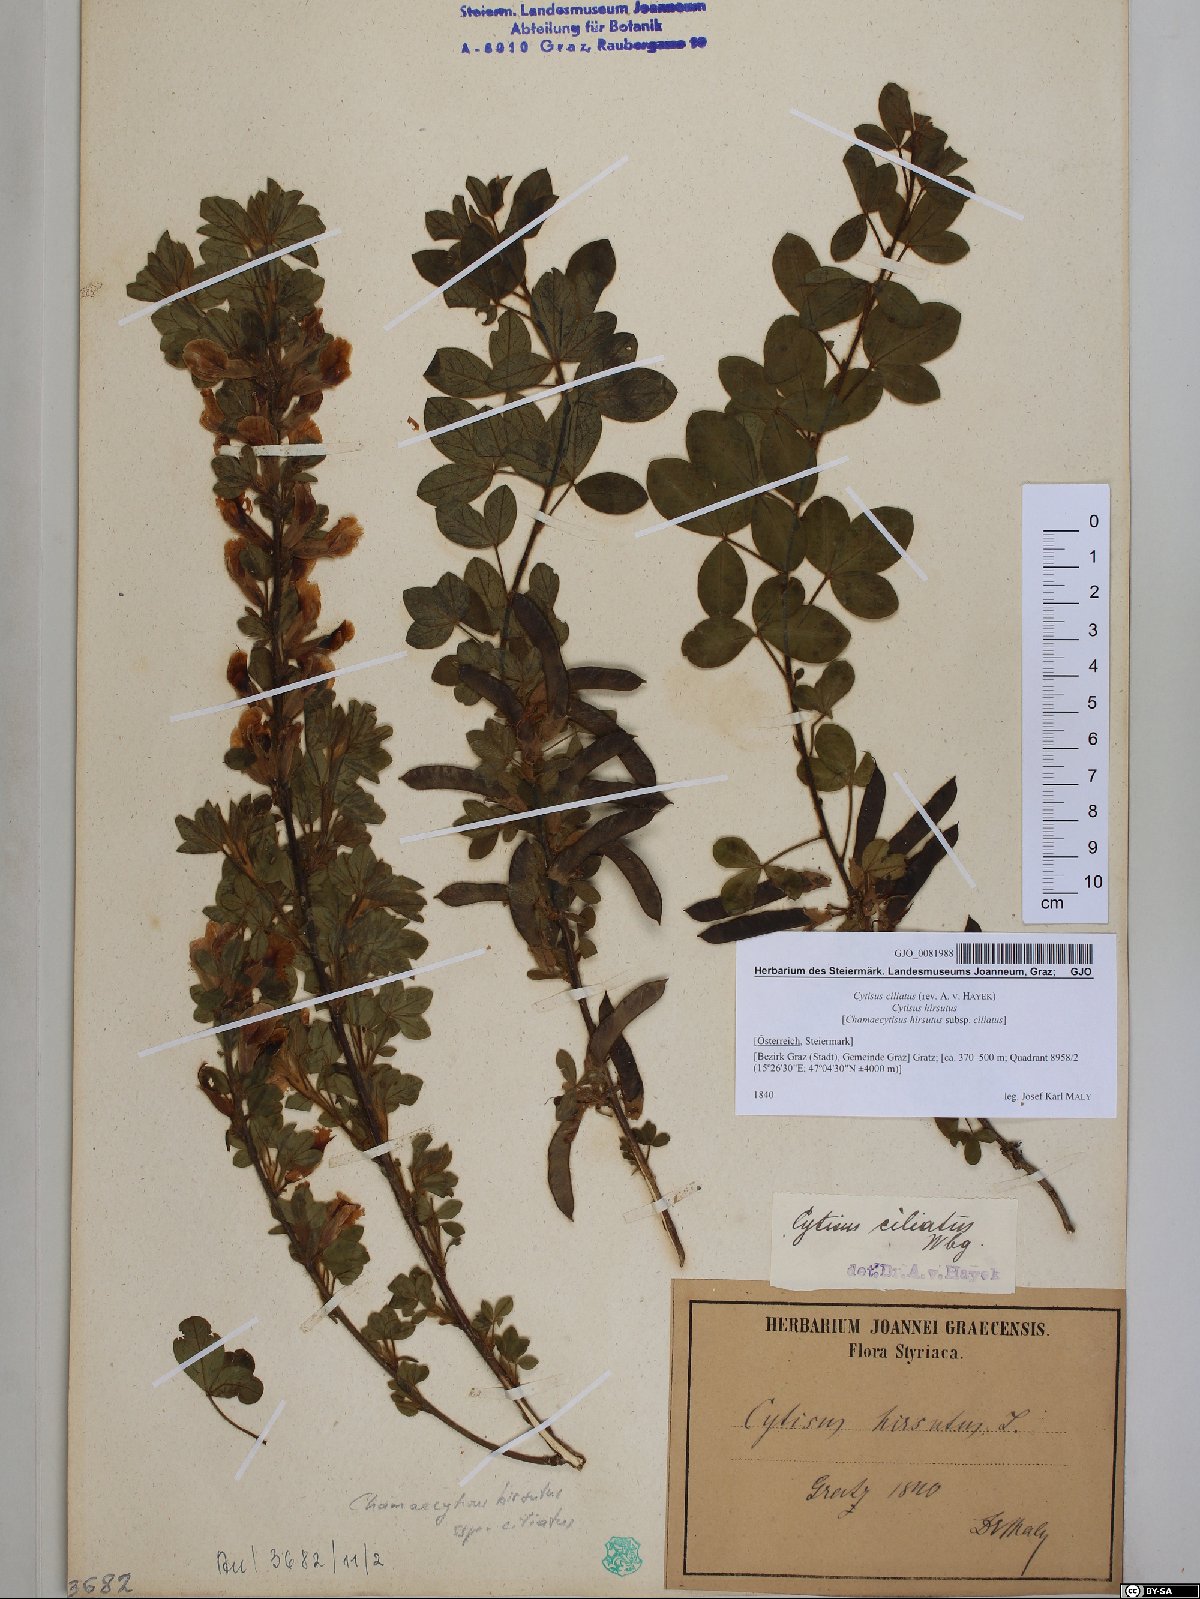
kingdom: Plantae
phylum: Tracheophyta
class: Magnoliopsida
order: Fabales
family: Fabaceae
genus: Chamaecytisus
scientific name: Chamaecytisus hirsutus
